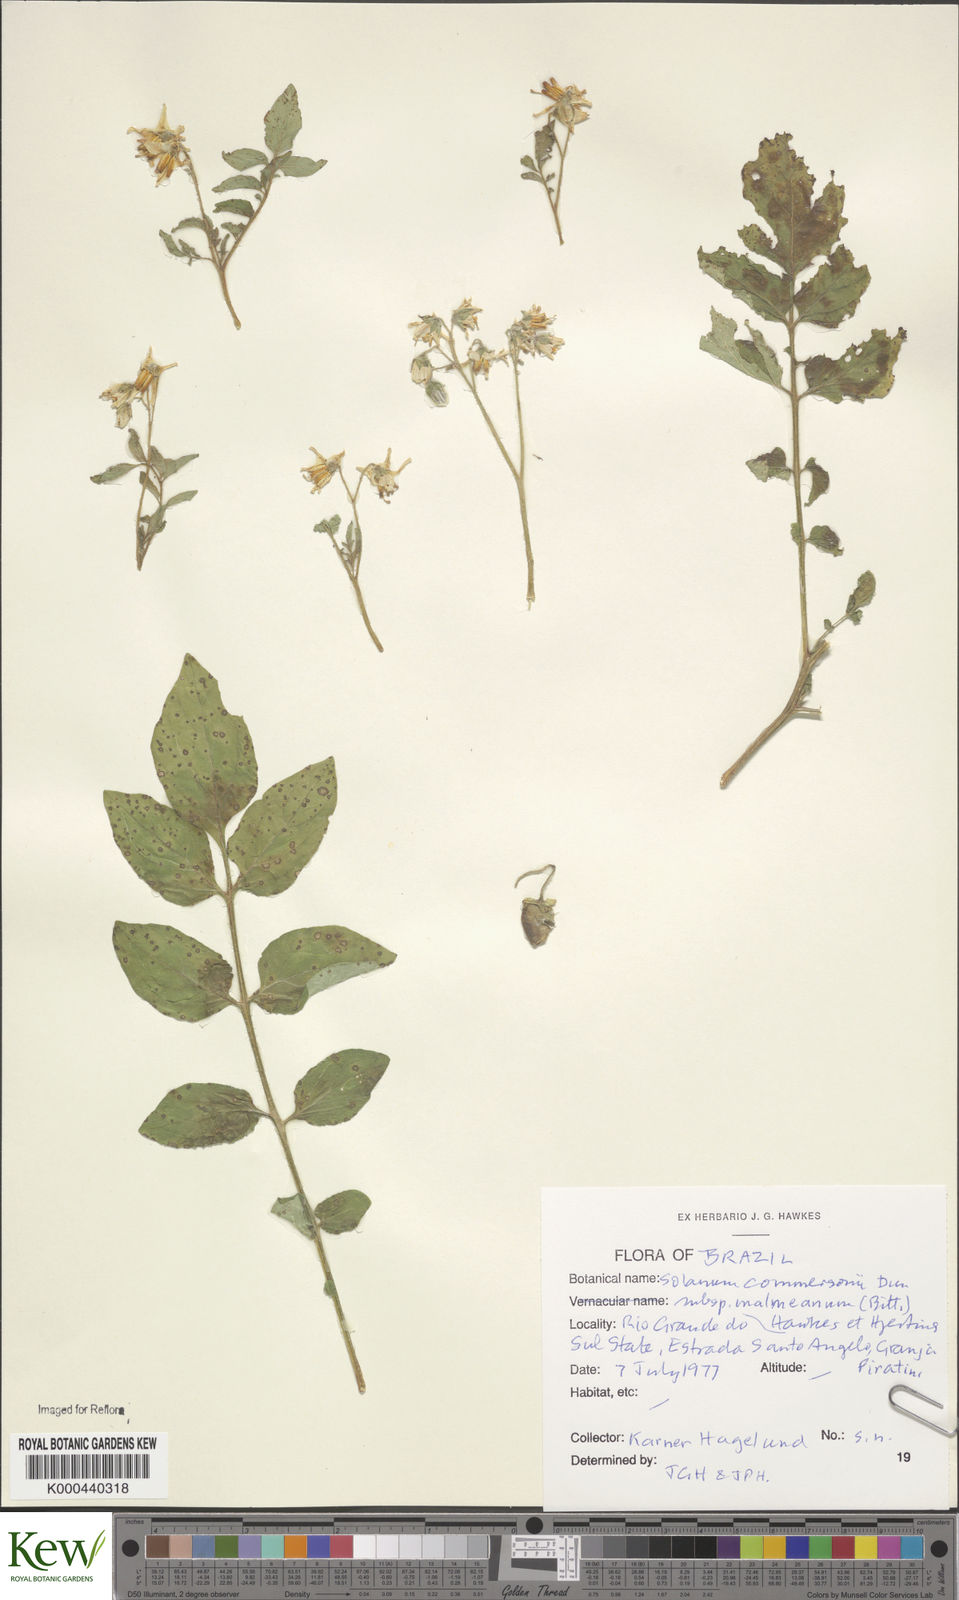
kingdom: Plantae
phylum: Tracheophyta
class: Magnoliopsida
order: Solanales
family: Solanaceae
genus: Solanum
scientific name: Solanum commersonii
